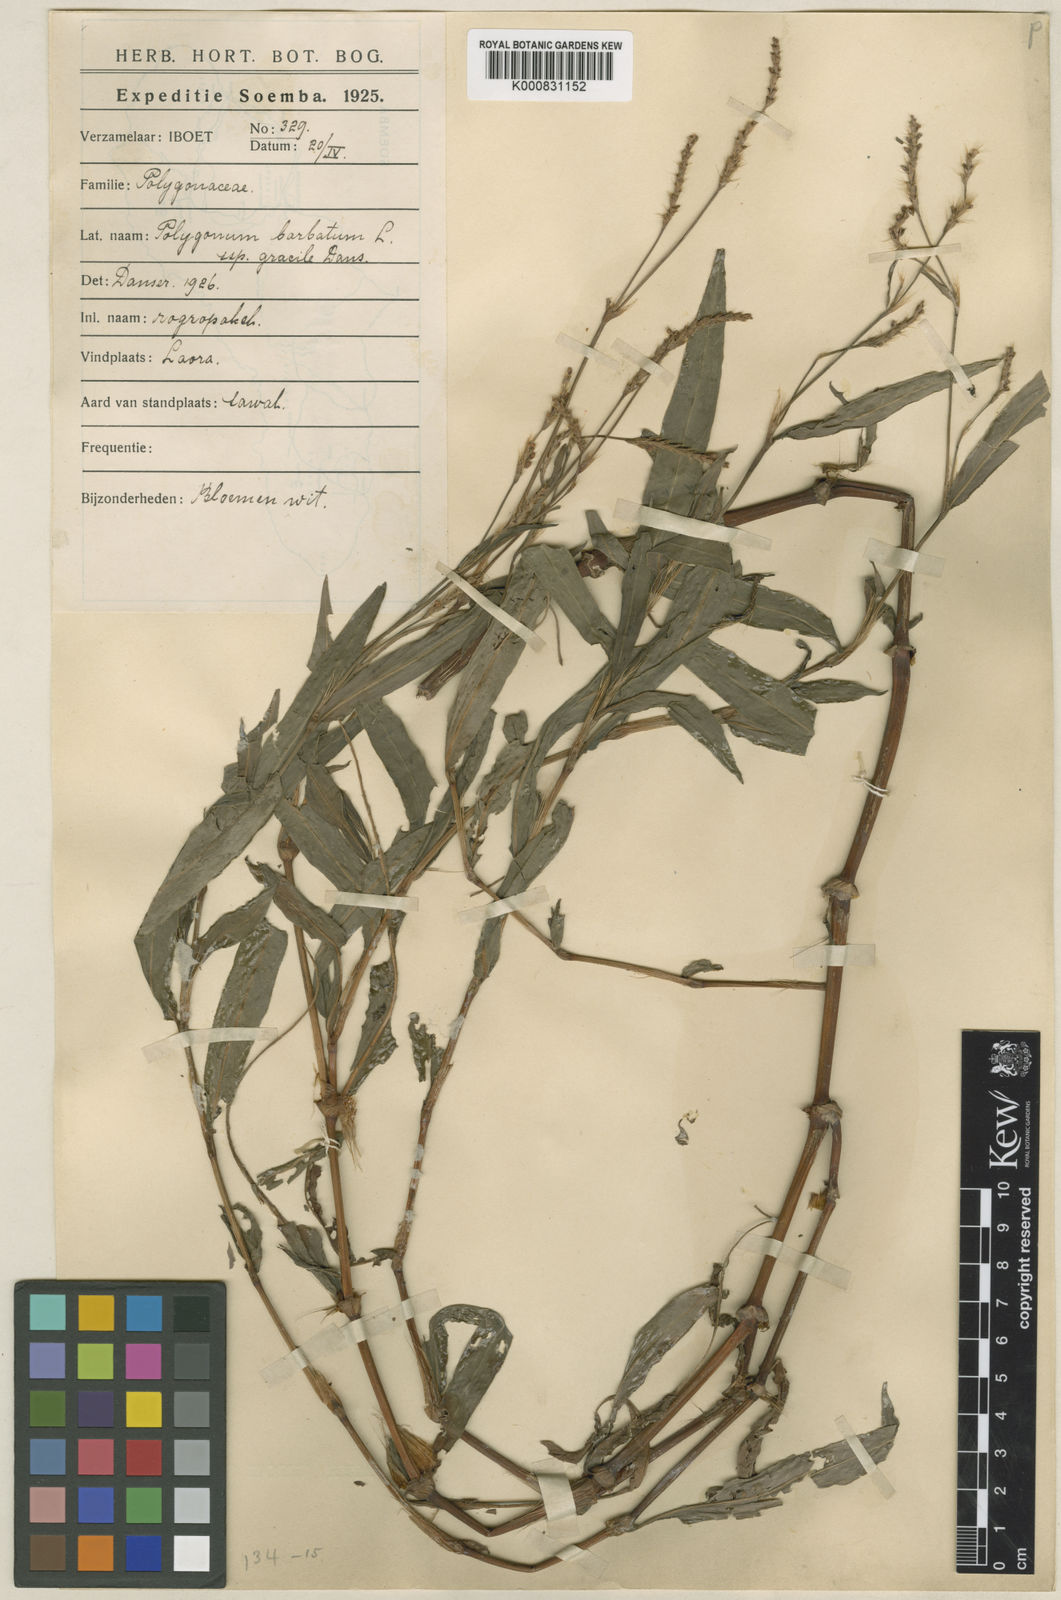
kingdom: Plantae
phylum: Tracheophyta
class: Magnoliopsida
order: Caryophyllales
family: Polygonaceae
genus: Persicaria
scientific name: Persicaria barbata
